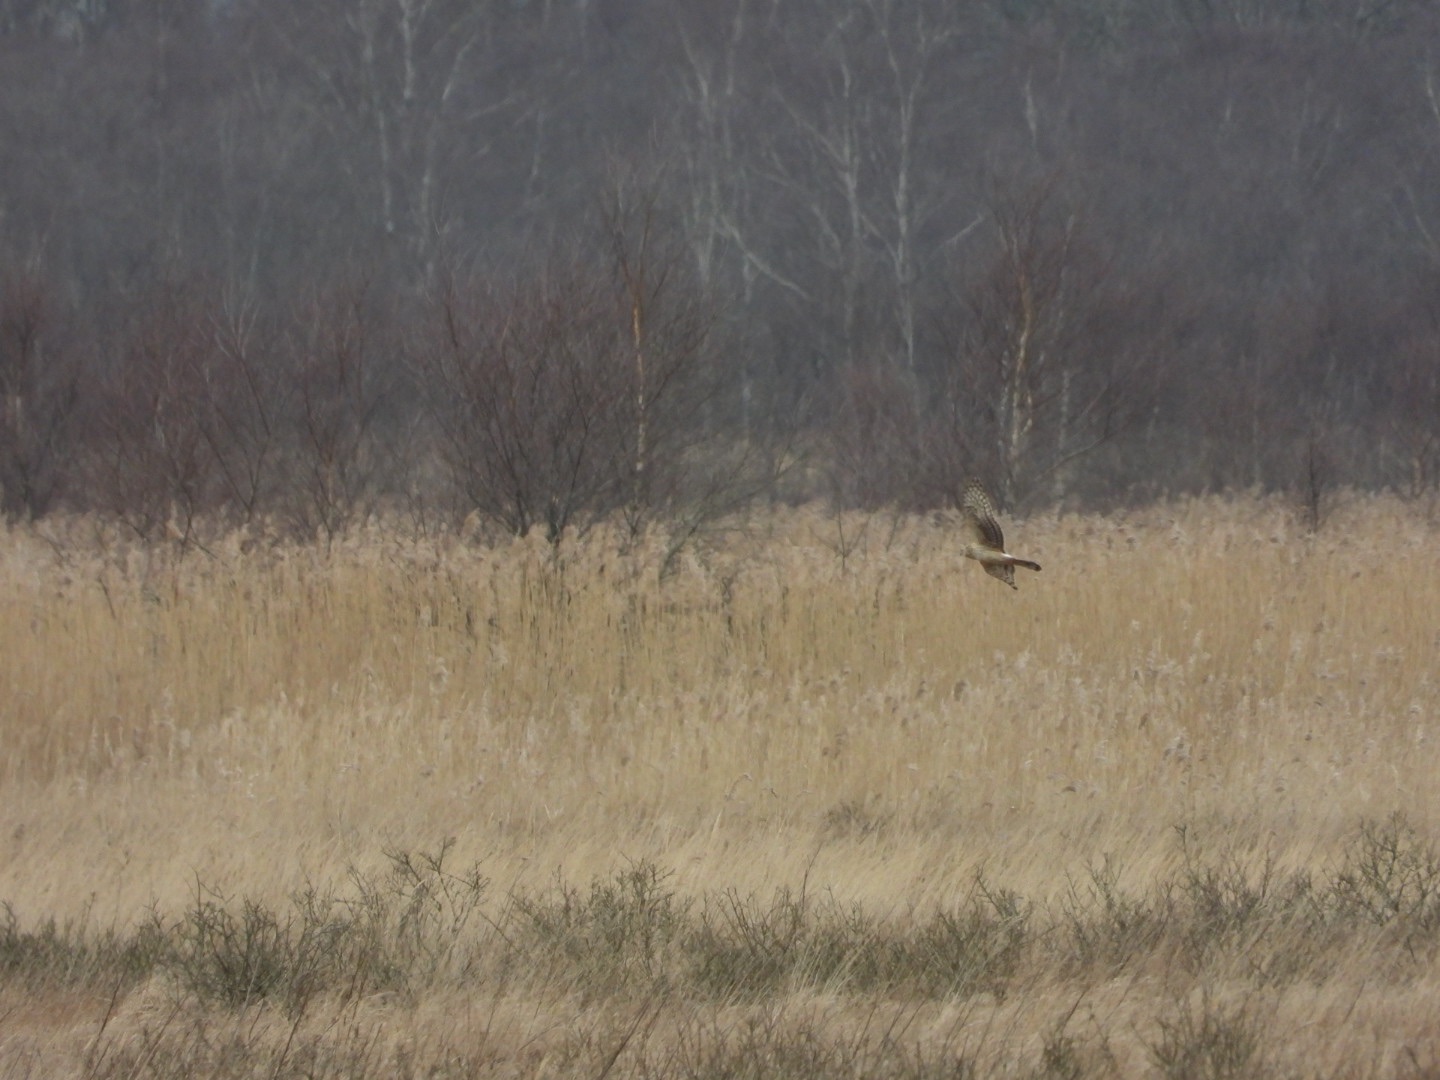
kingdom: Animalia
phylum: Chordata
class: Aves
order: Accipitriformes
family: Accipitridae
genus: Circus
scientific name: Circus cyaneus
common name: Blå kærhøg
